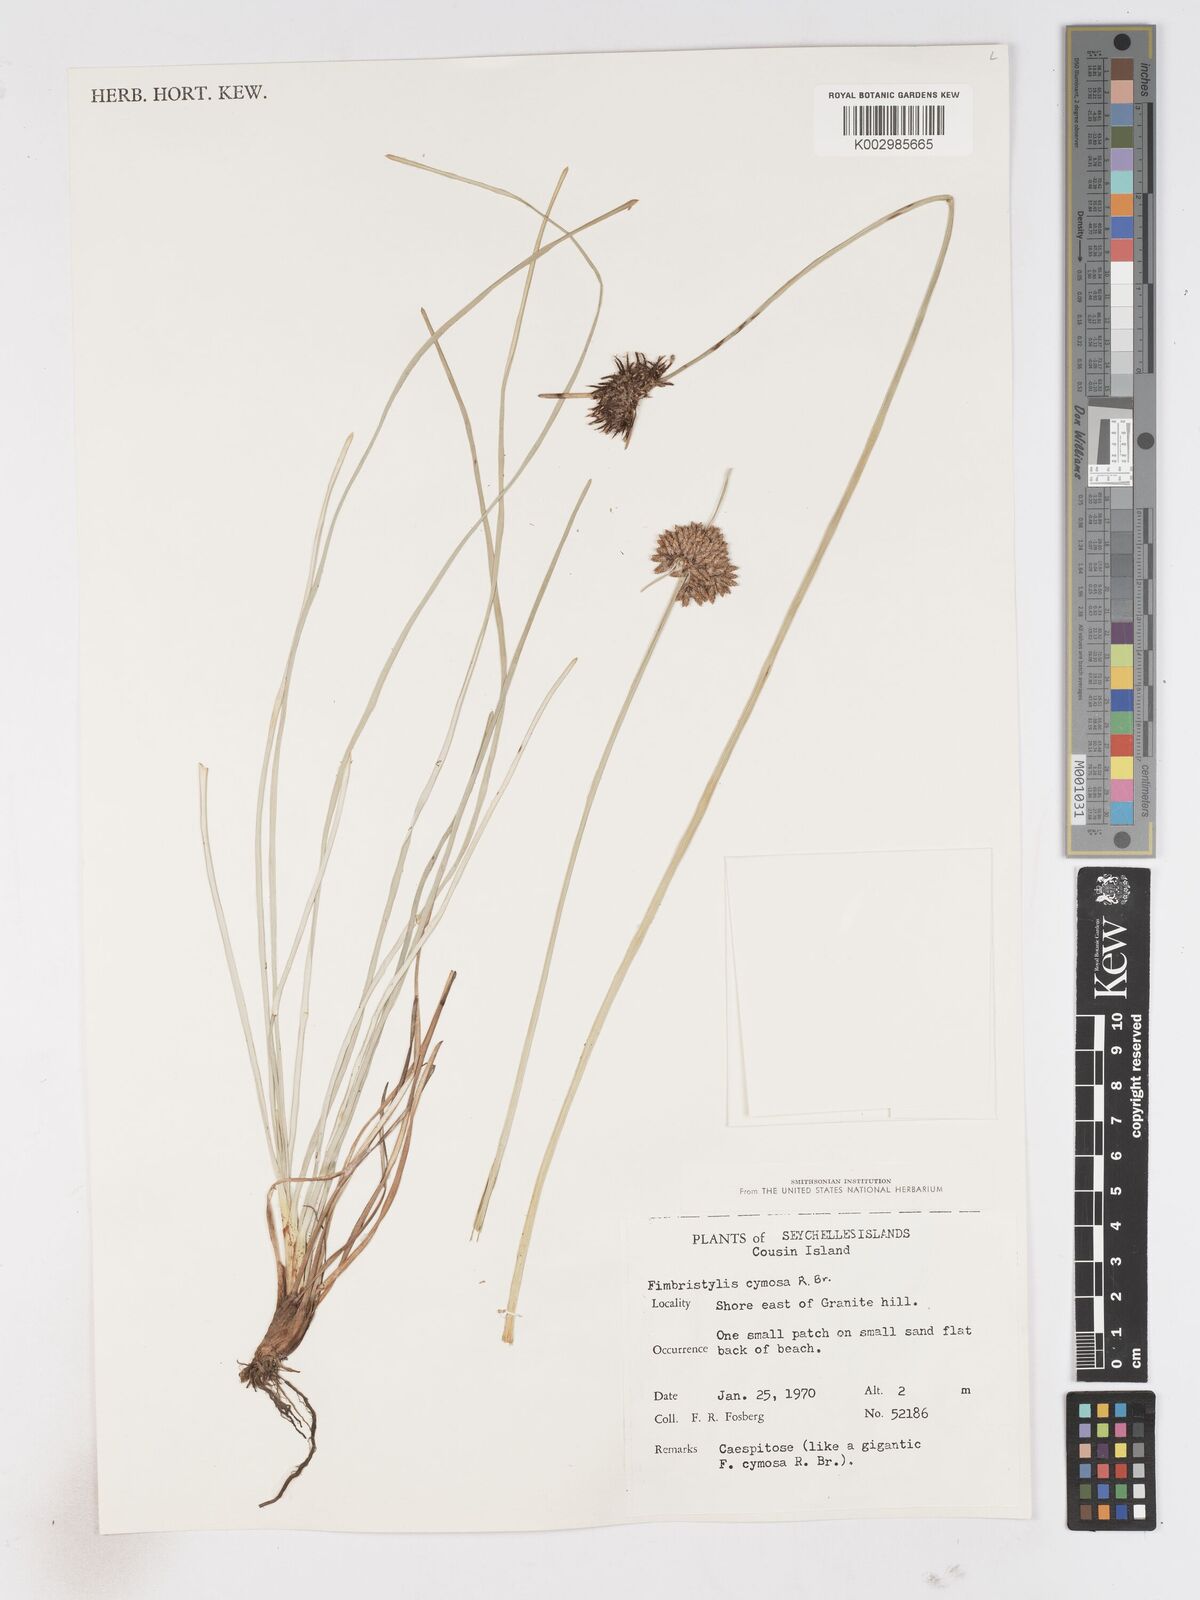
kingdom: Plantae
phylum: Tracheophyta
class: Liliopsida
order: Poales
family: Cyperaceae
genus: Fimbristylis
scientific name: Fimbristylis cymosa
